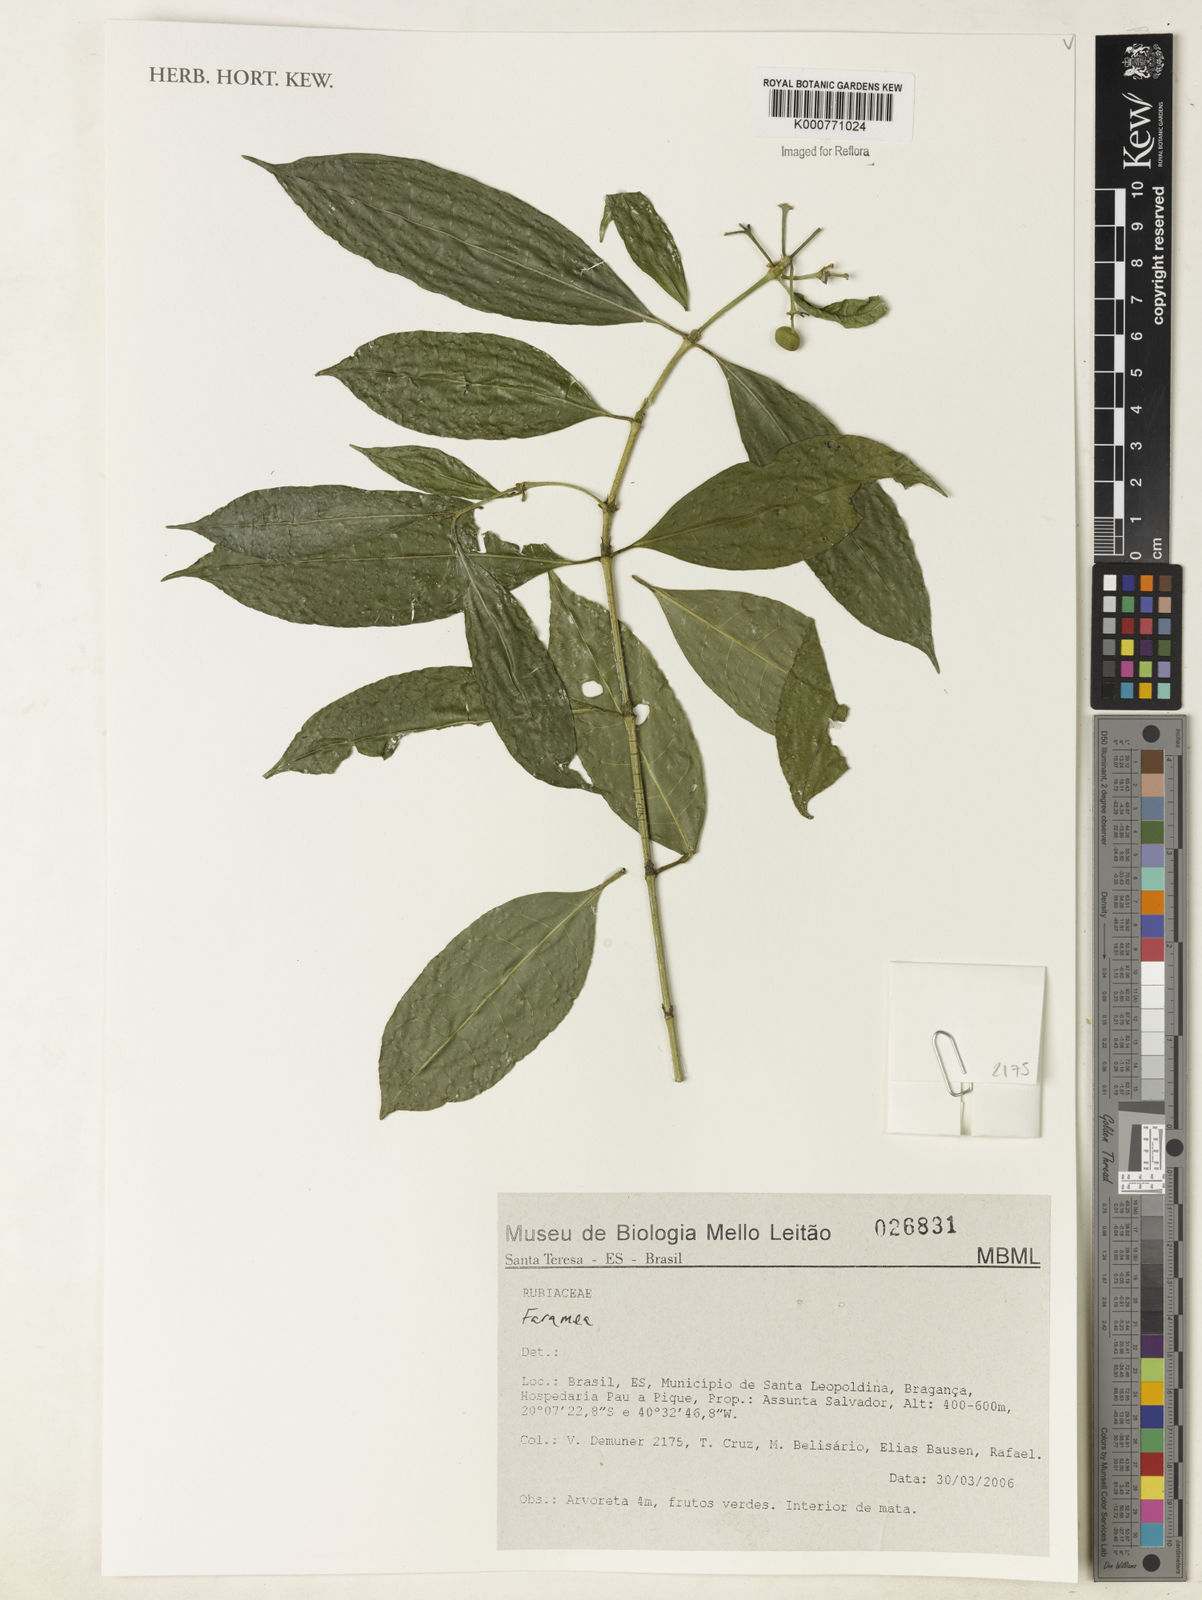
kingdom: Plantae
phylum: Tracheophyta
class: Magnoliopsida
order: Gentianales
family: Rubiaceae
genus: Faramea
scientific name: Faramea
